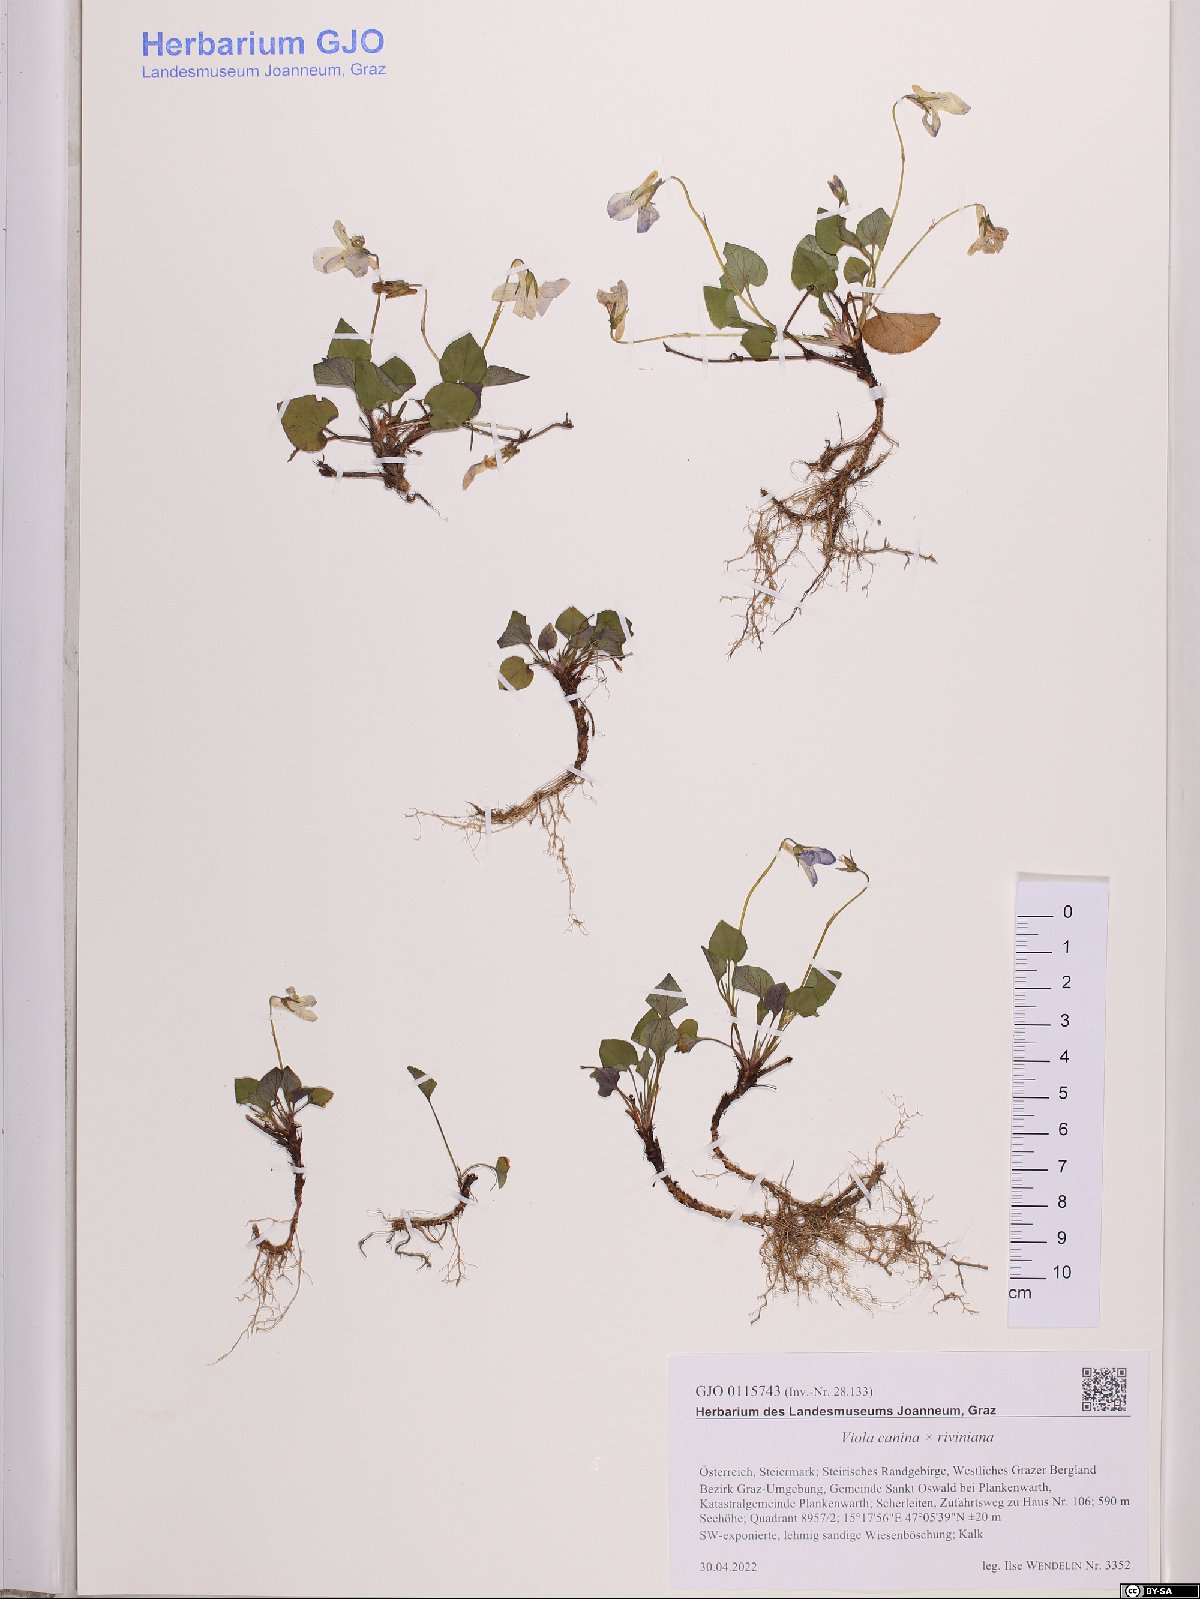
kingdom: Plantae
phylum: Tracheophyta
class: Magnoliopsida
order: Malpighiales
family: Violaceae
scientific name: Violaceae
